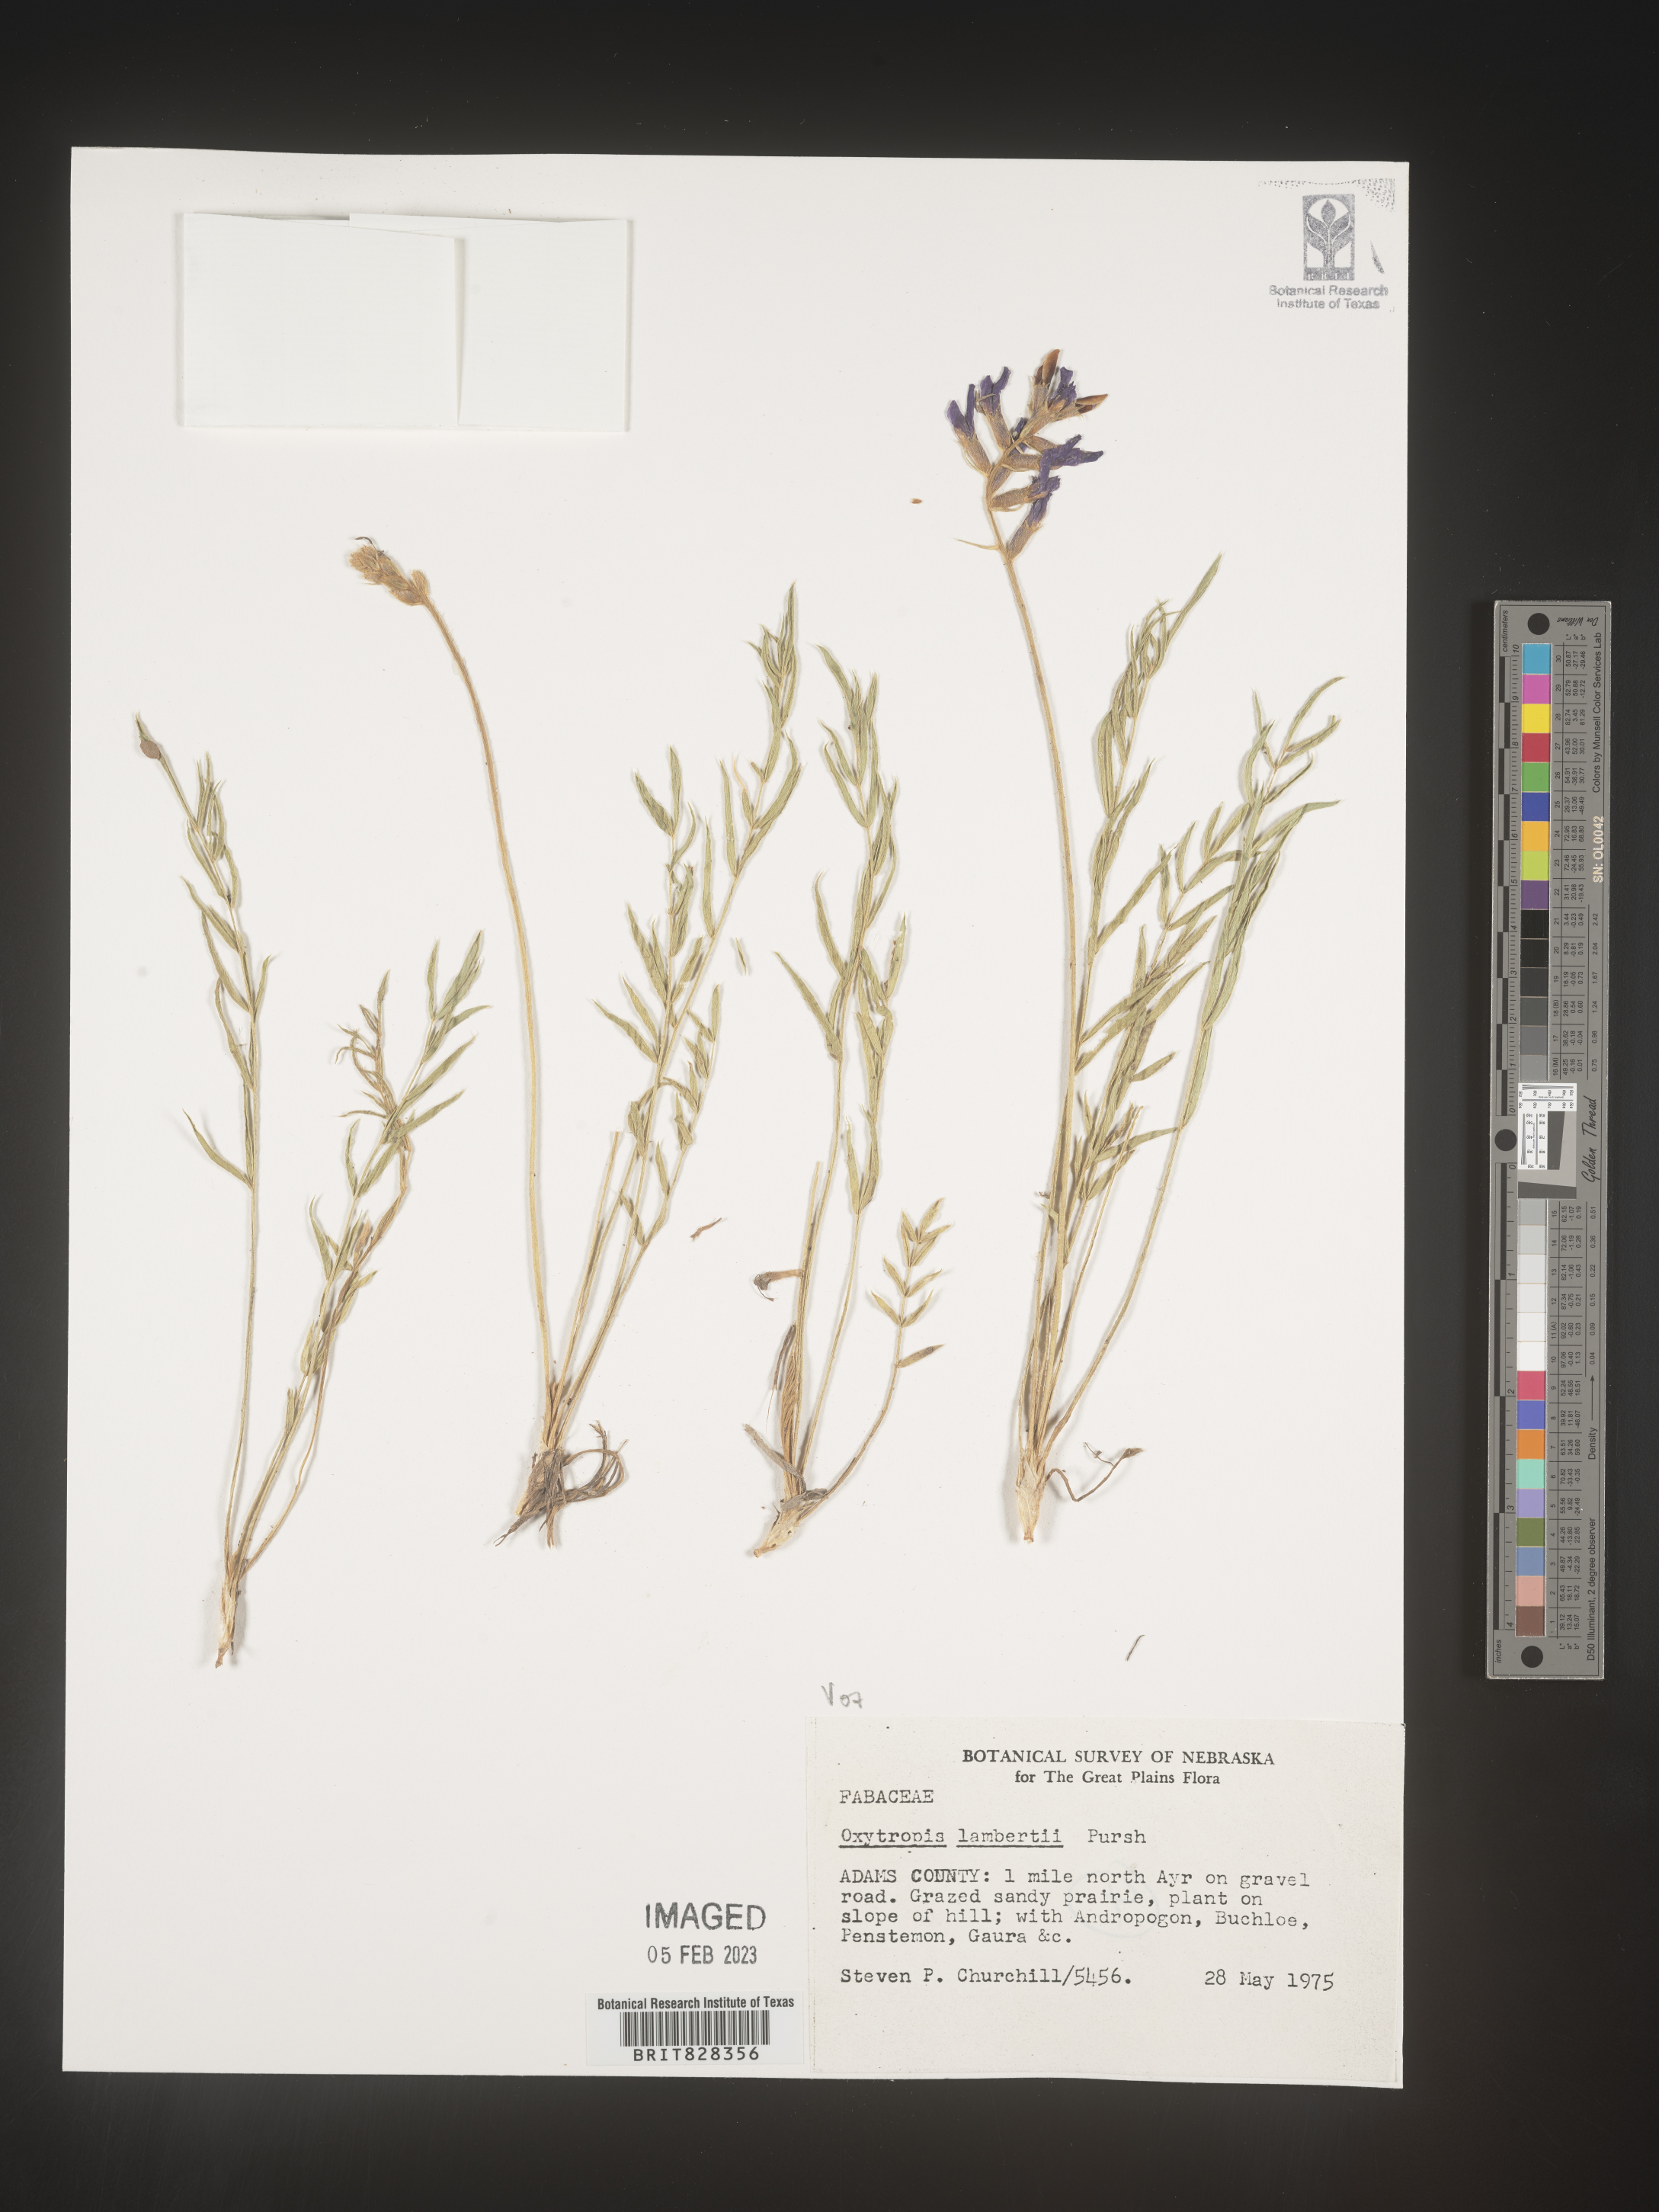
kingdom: Plantae
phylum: Tracheophyta
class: Magnoliopsida
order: Fabales
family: Fabaceae
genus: Oxytropis
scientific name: Oxytropis lambertii
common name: Purple locoweed
